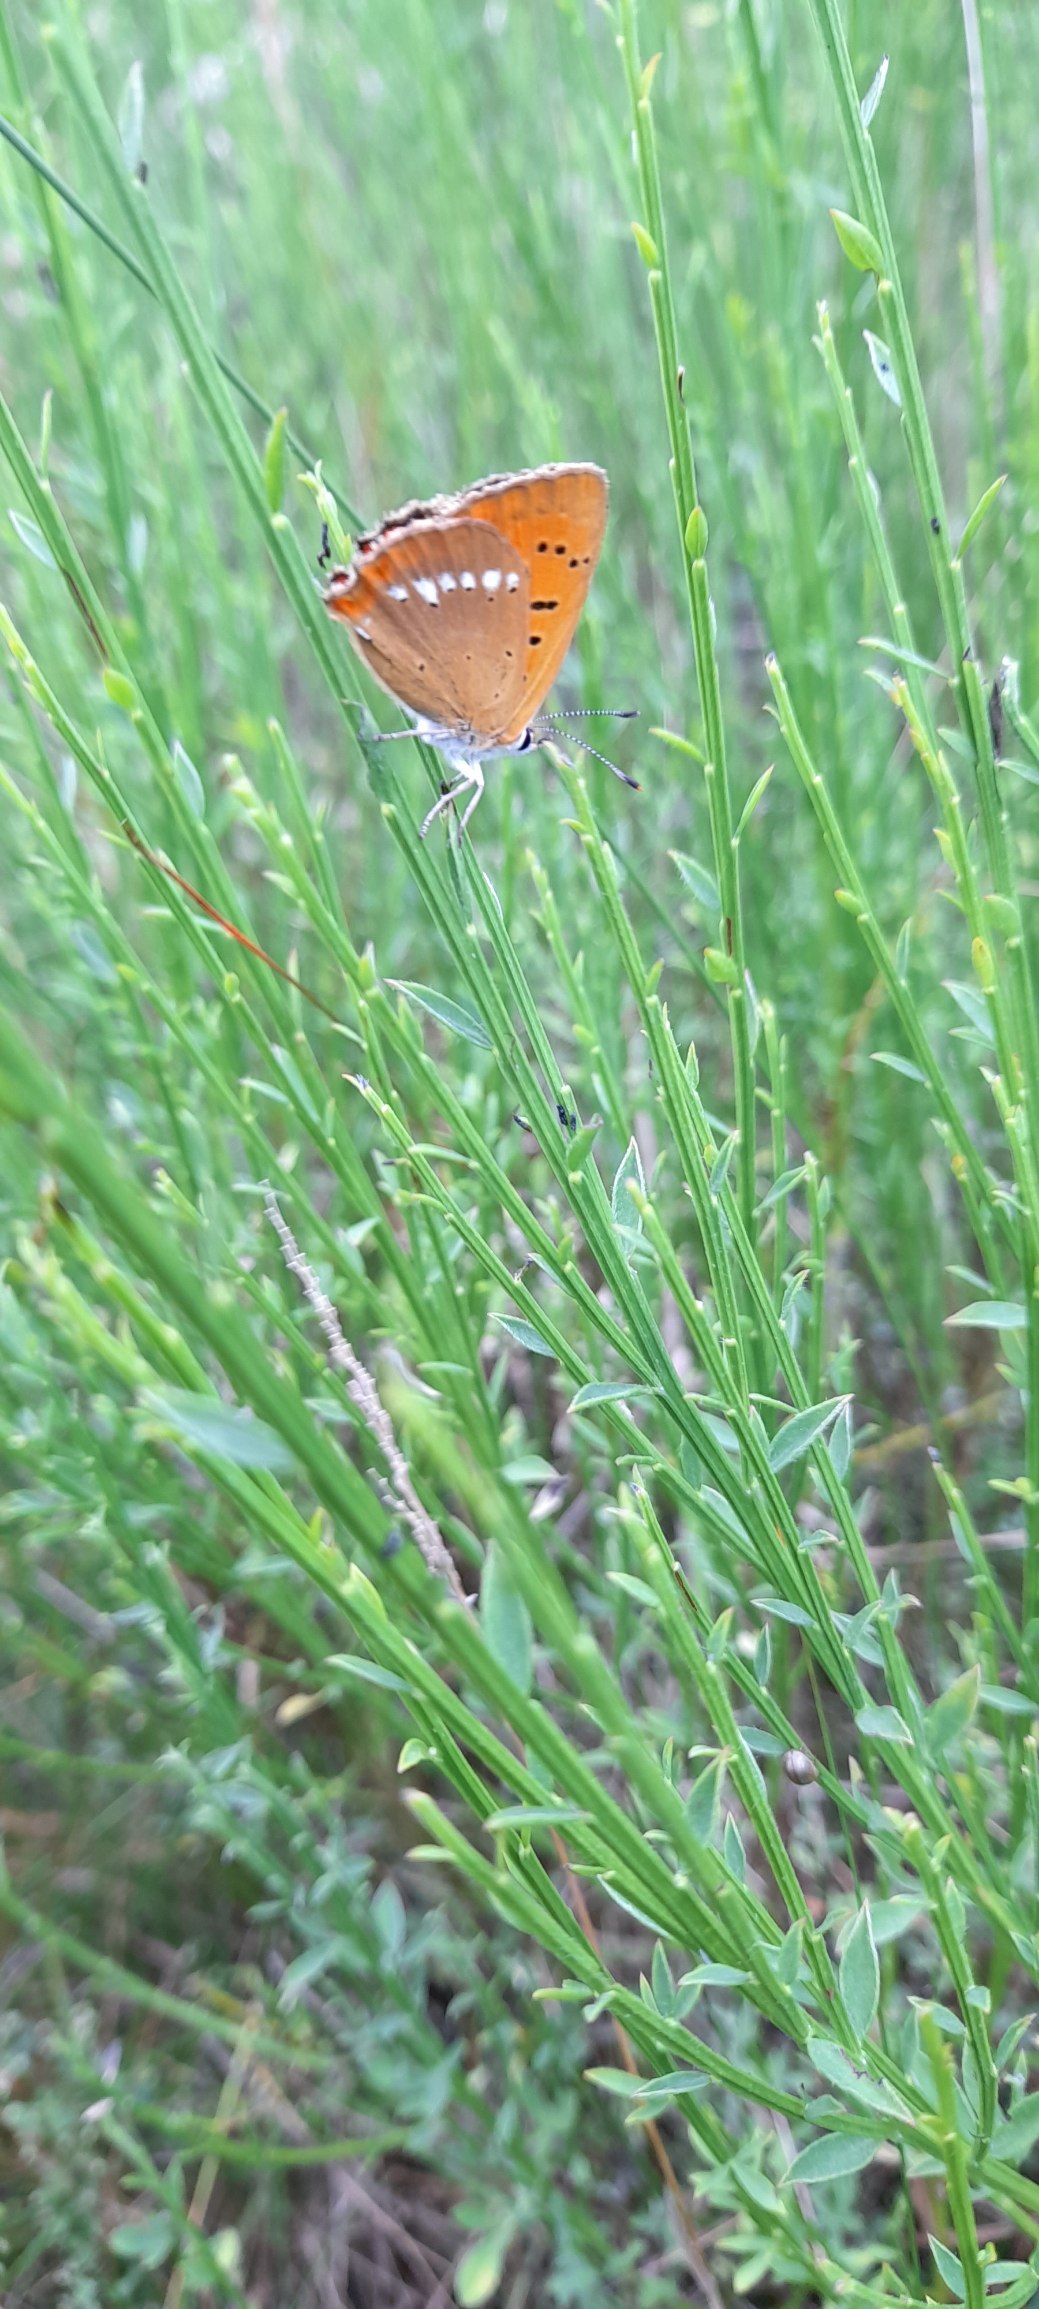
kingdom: Animalia
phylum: Arthropoda
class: Insecta
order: Lepidoptera
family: Lycaenidae
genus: Lycaena
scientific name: Lycaena virgaureae
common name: Dukatsommerfugl
